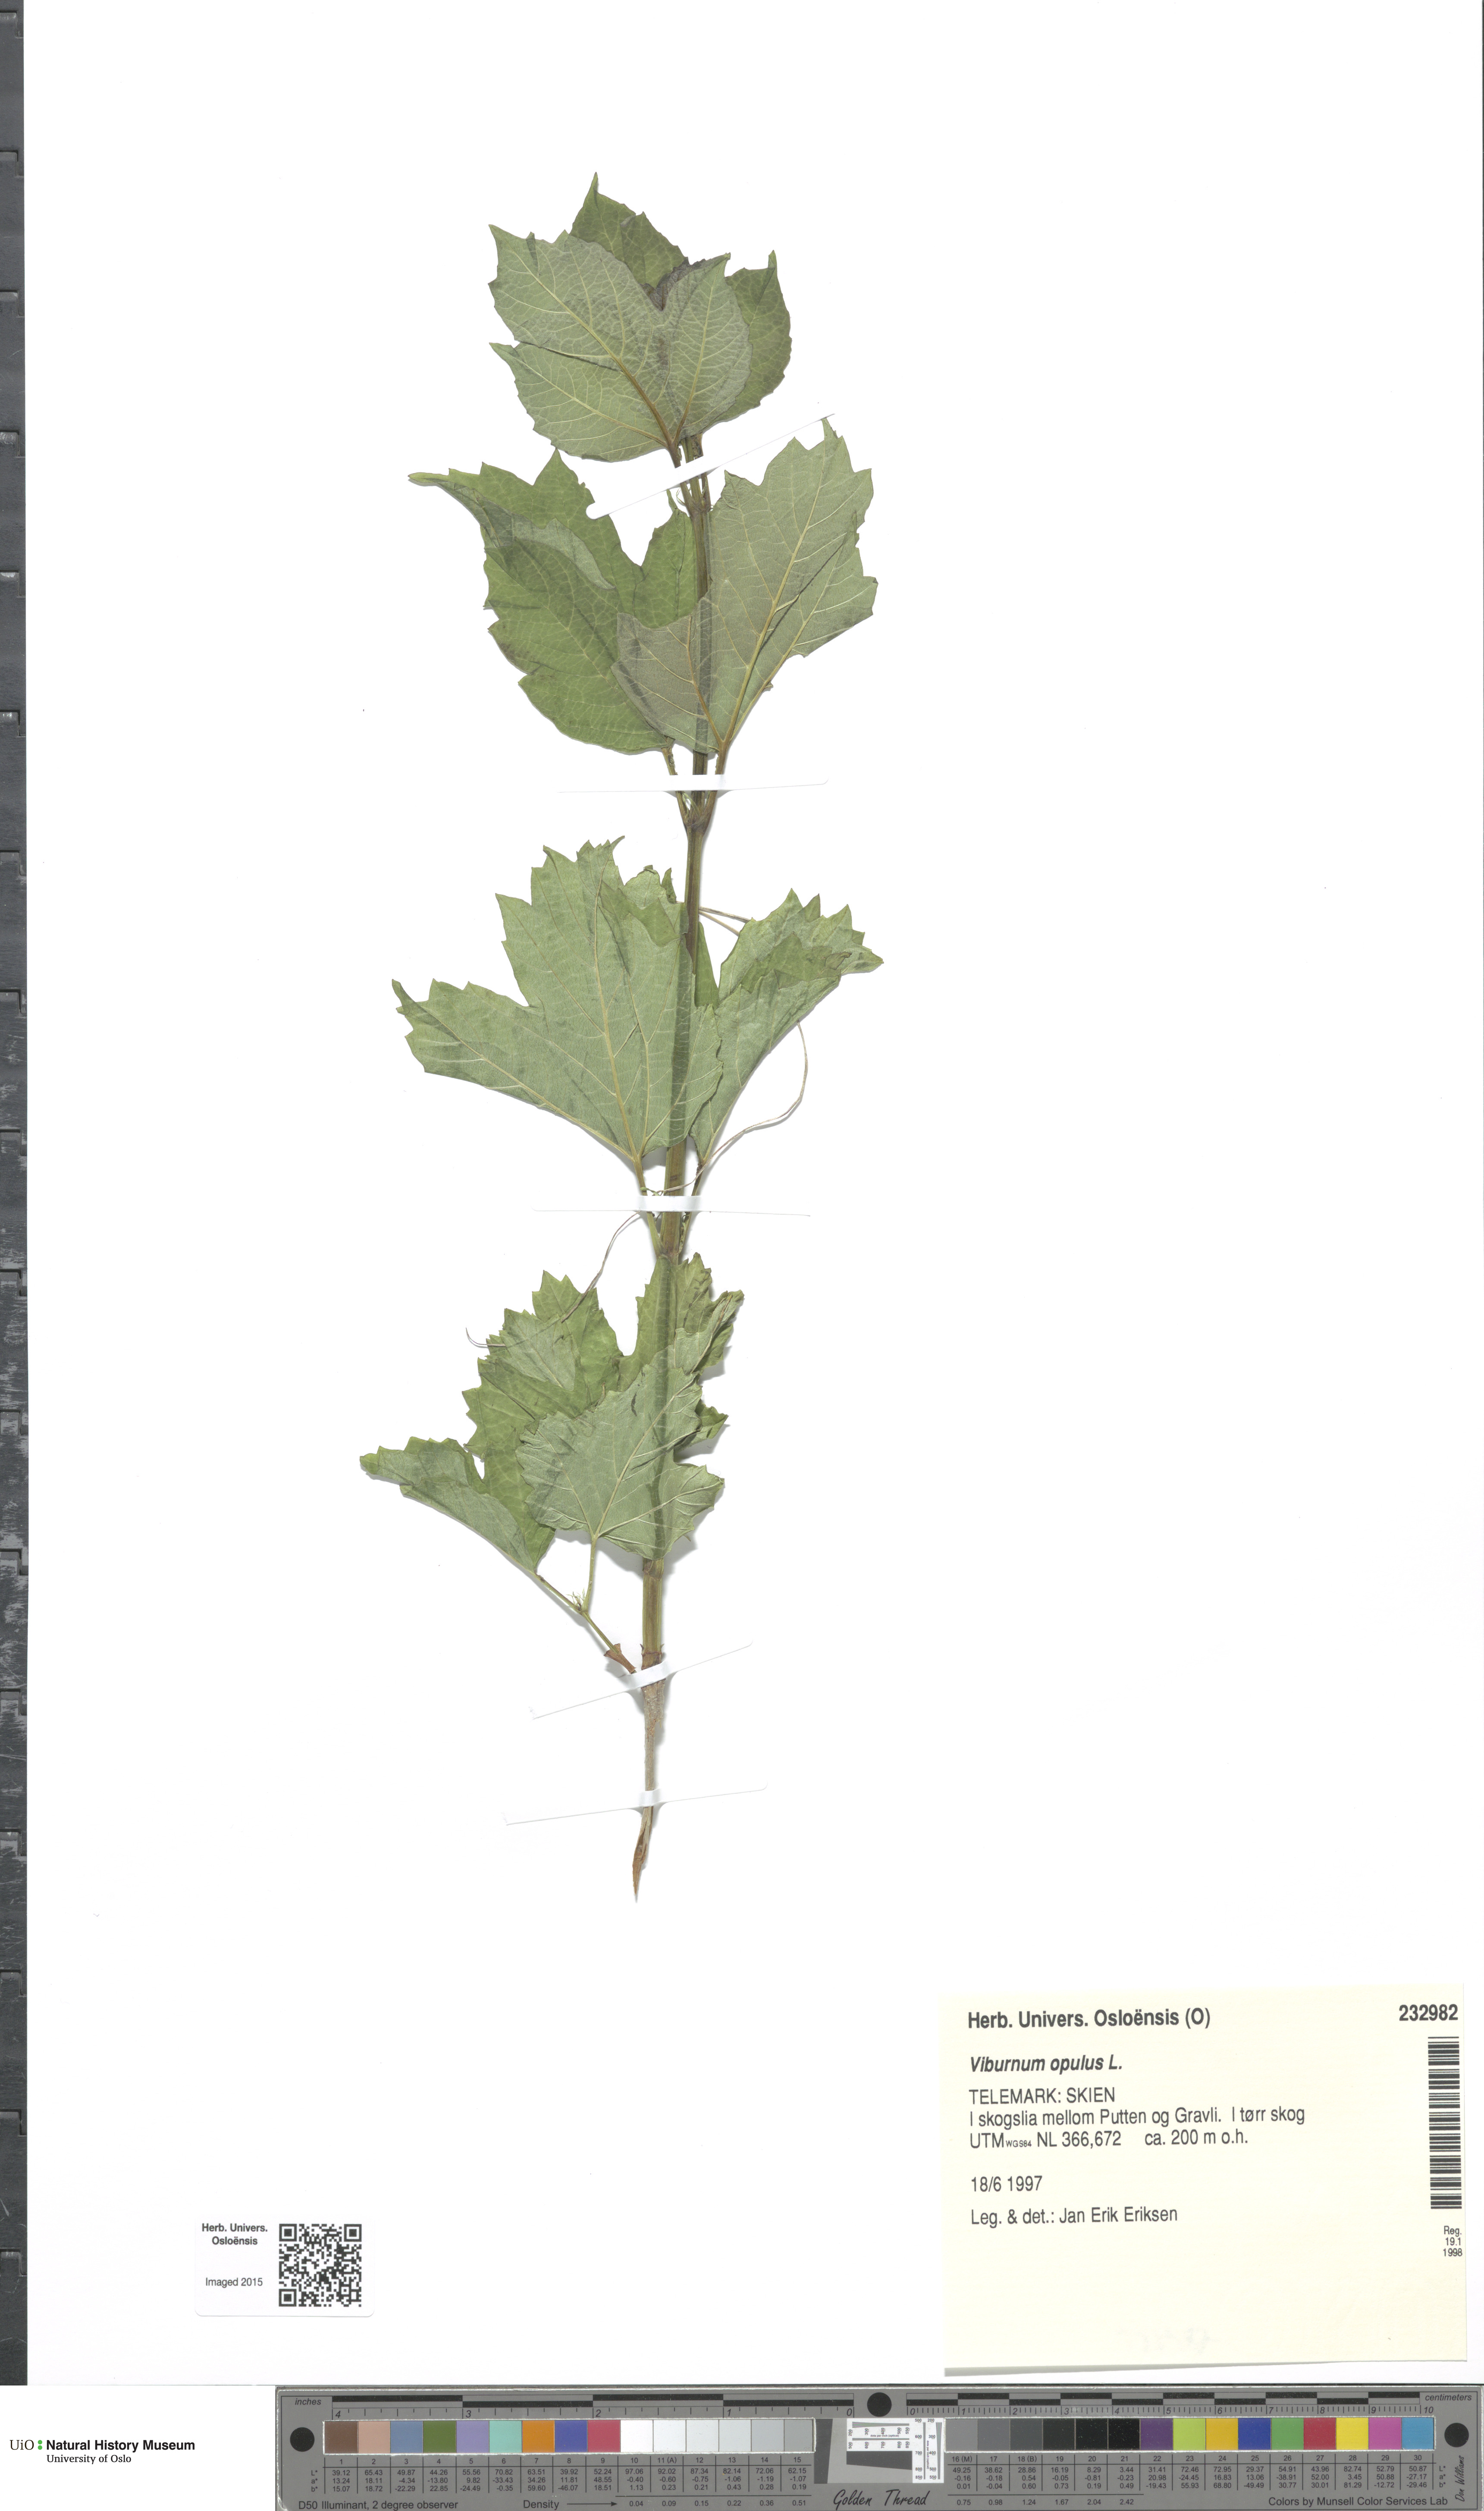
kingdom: Plantae
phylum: Tracheophyta
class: Magnoliopsida
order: Dipsacales
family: Viburnaceae
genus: Viburnum
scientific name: Viburnum opulus
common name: Guelder-rose
